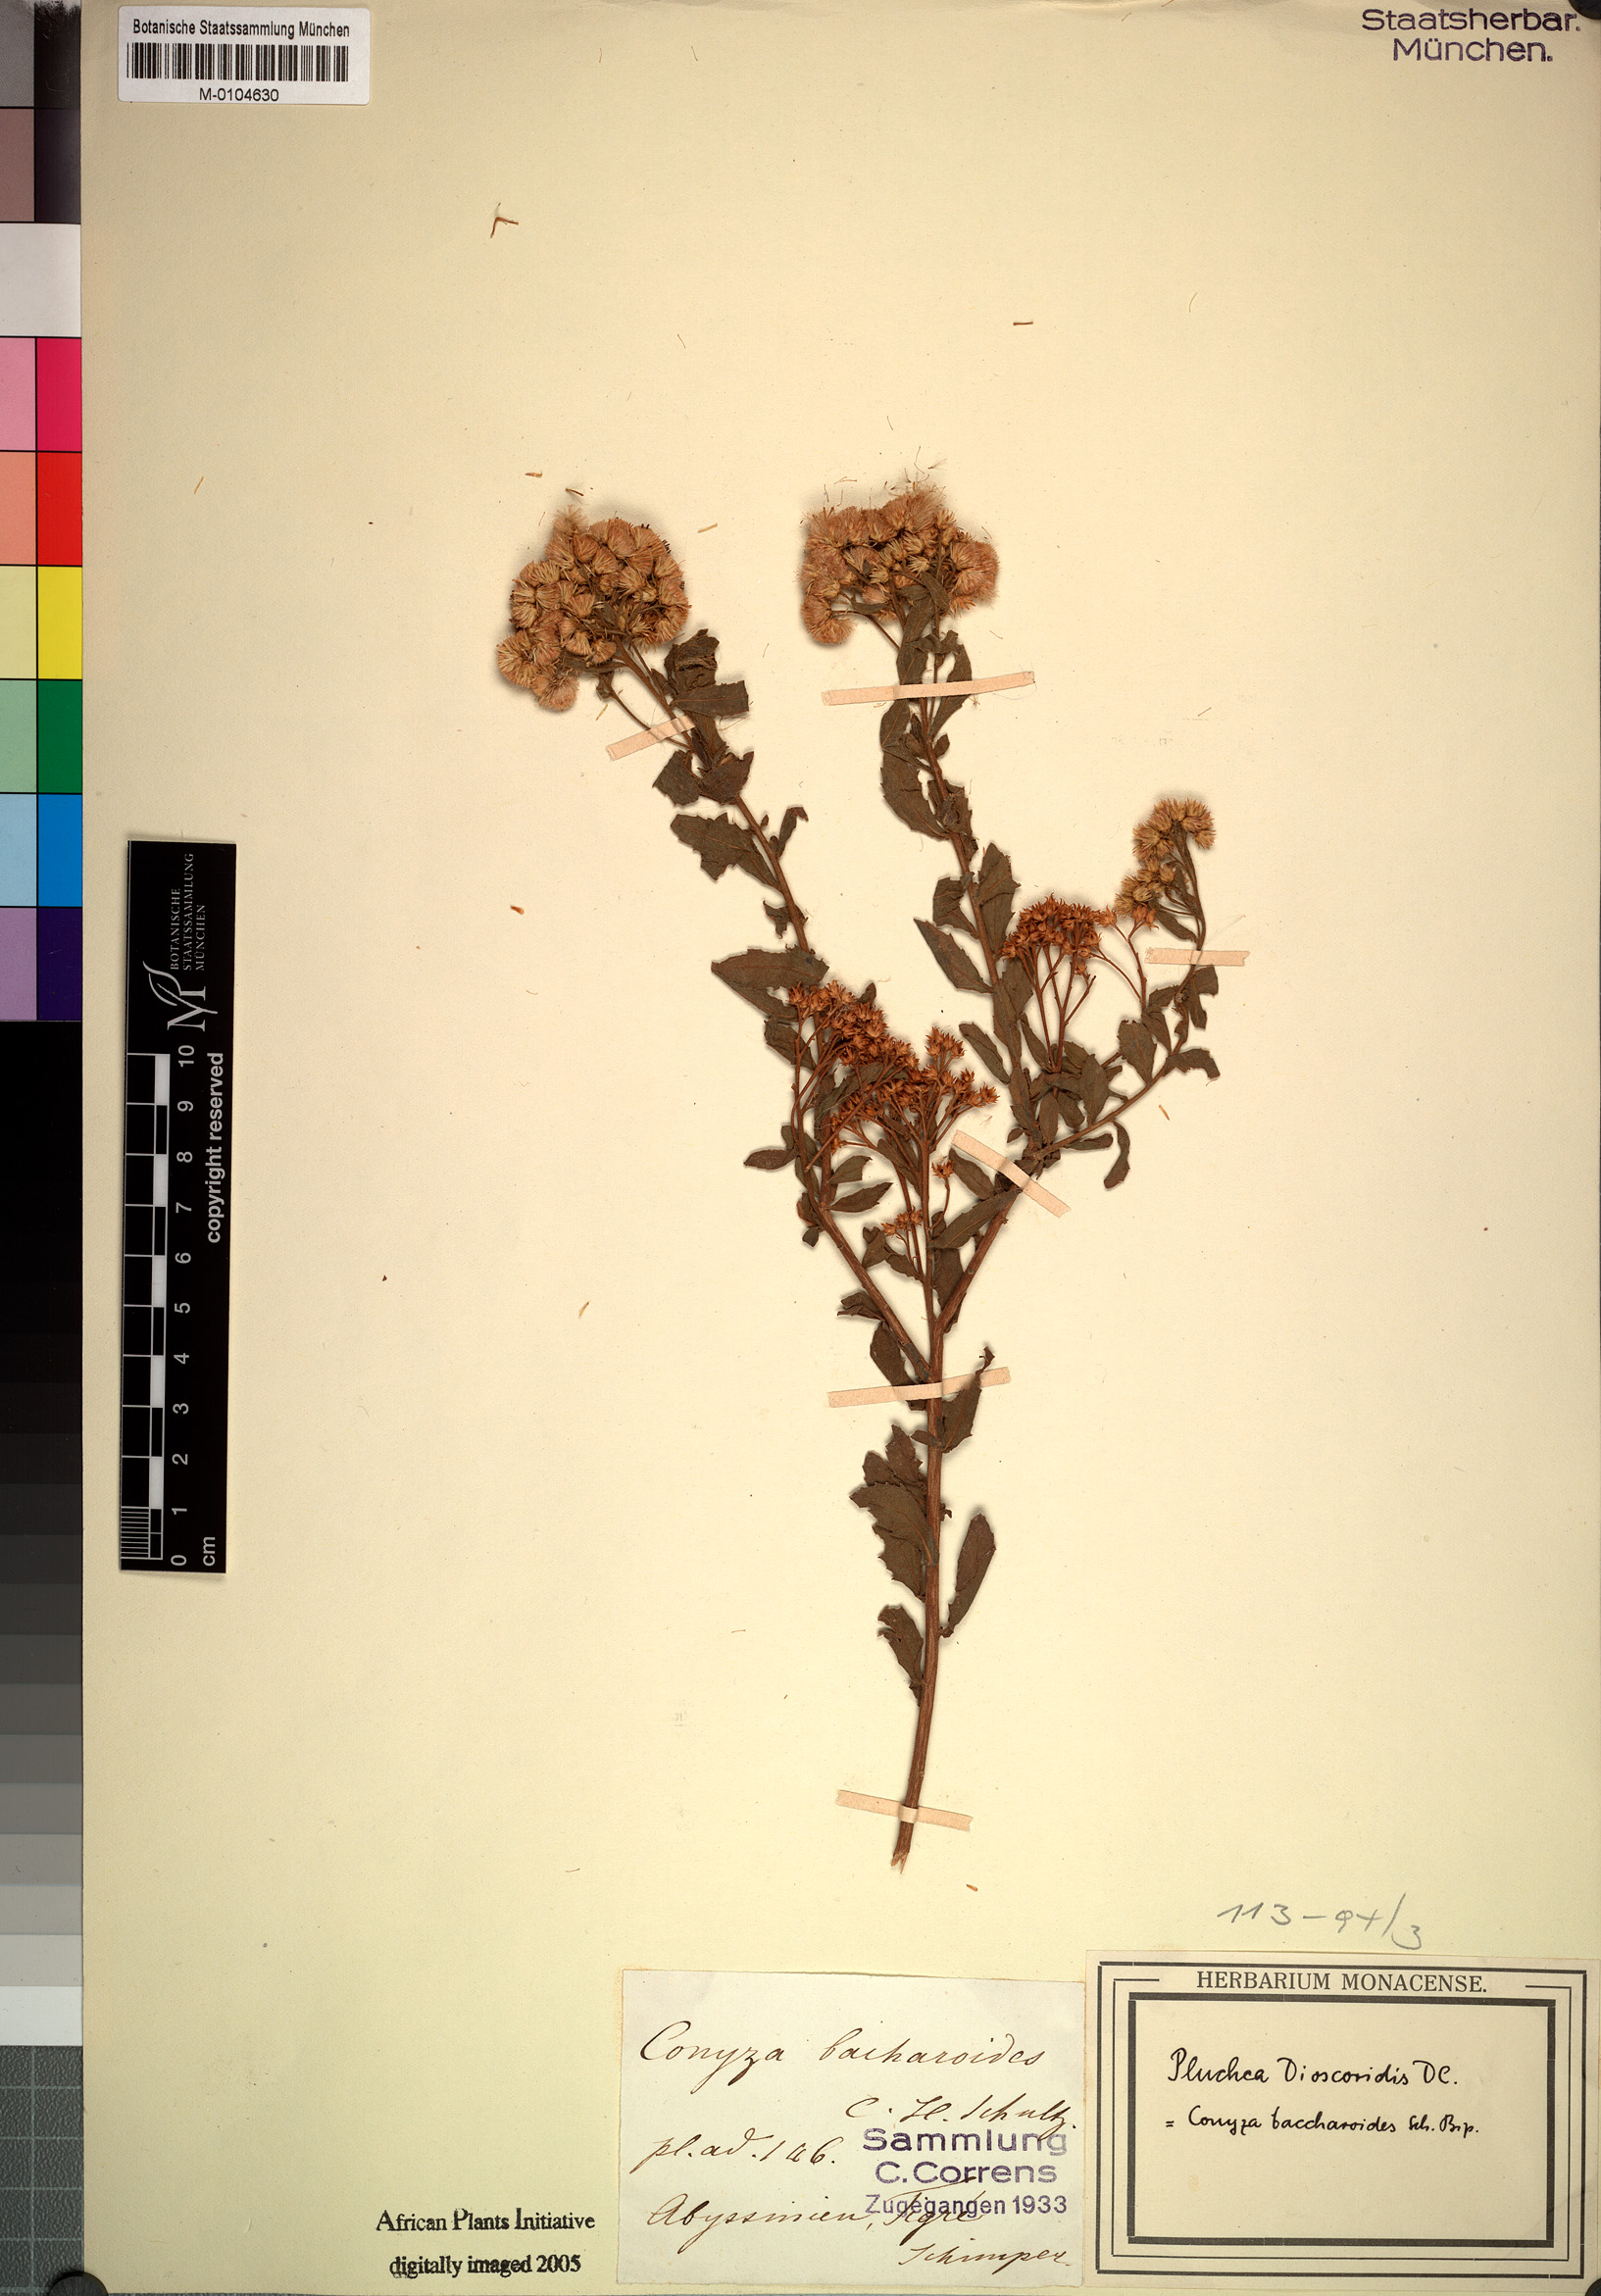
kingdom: Plantae
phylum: Tracheophyta
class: Magnoliopsida
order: Asterales
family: Asteraceae
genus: Pluchea
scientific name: Pluchea dioscoridis
